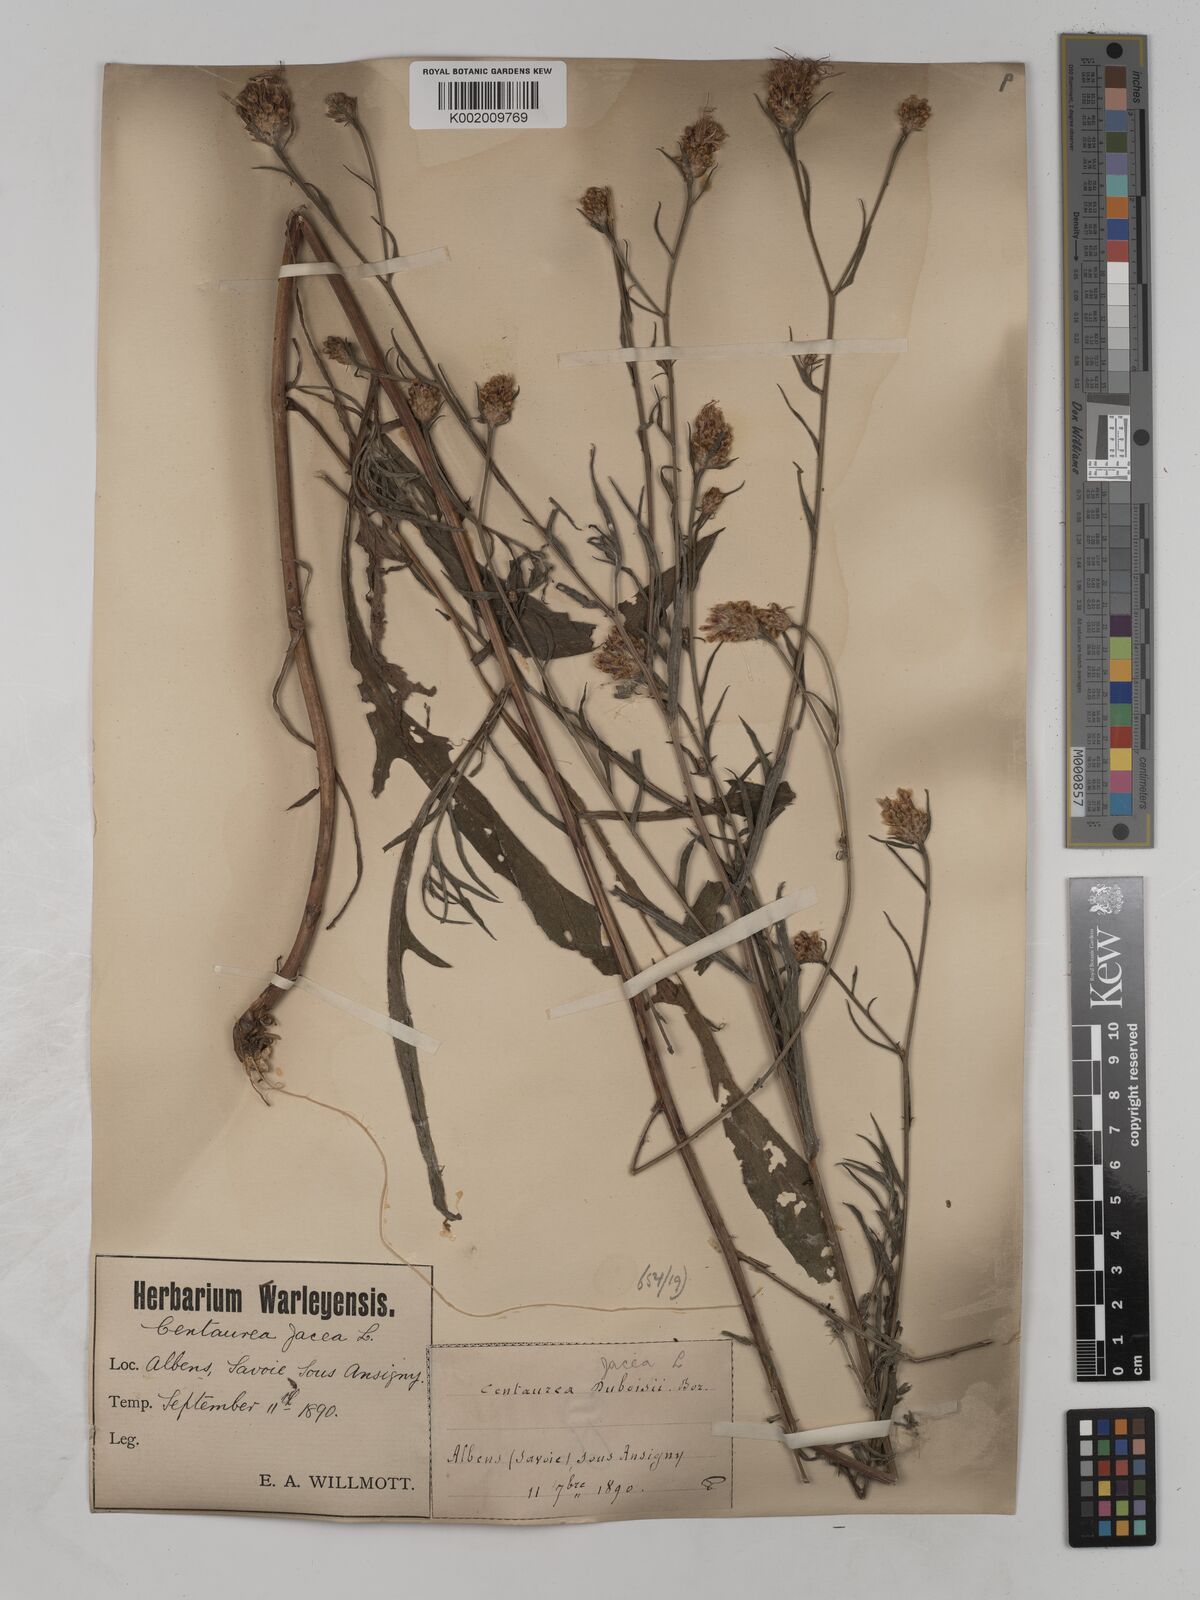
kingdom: Plantae
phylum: Tracheophyta
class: Magnoliopsida
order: Asterales
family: Asteraceae
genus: Centaurea
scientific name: Centaurea timbalii
